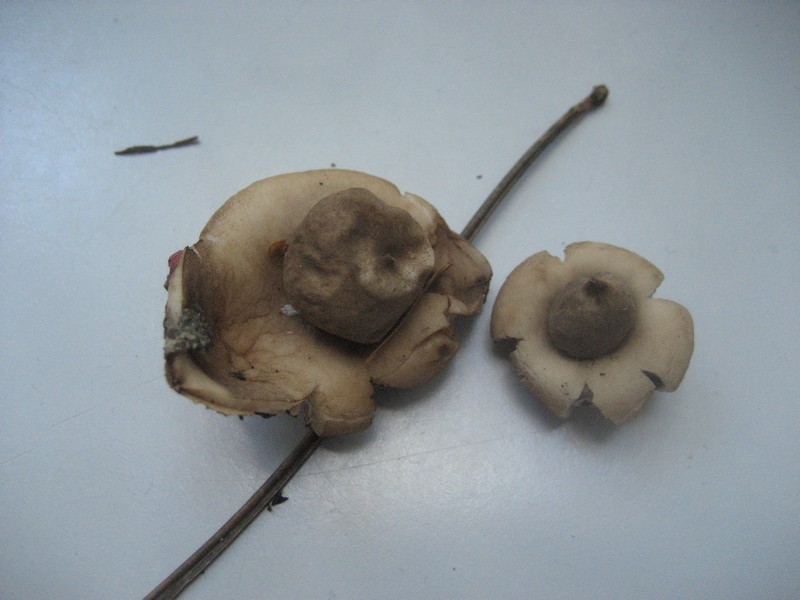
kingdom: Fungi
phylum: Basidiomycota
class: Agaricomycetes
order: Geastrales
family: Geastraceae
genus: Geastrum
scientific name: Geastrum fimbriatum
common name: frynset stjernebold
